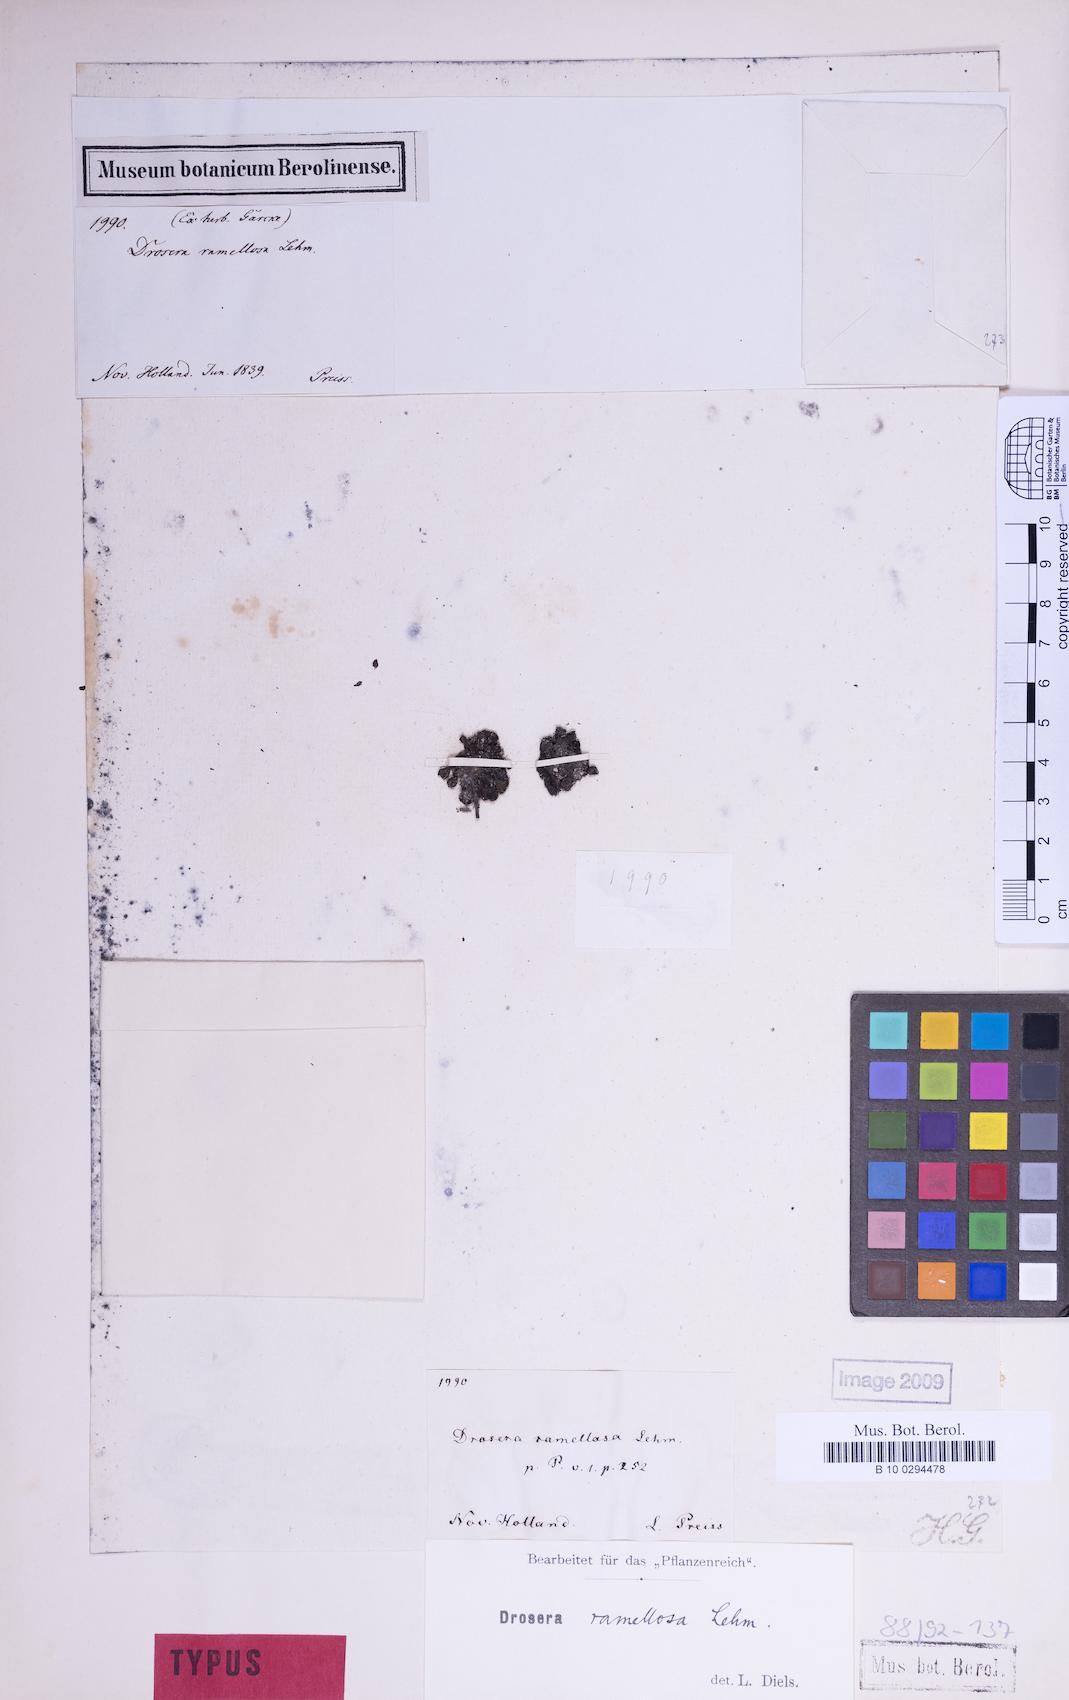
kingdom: Plantae
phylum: Tracheophyta
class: Magnoliopsida
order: Caryophyllales
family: Droseraceae
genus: Drosera
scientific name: Drosera ramellosa
